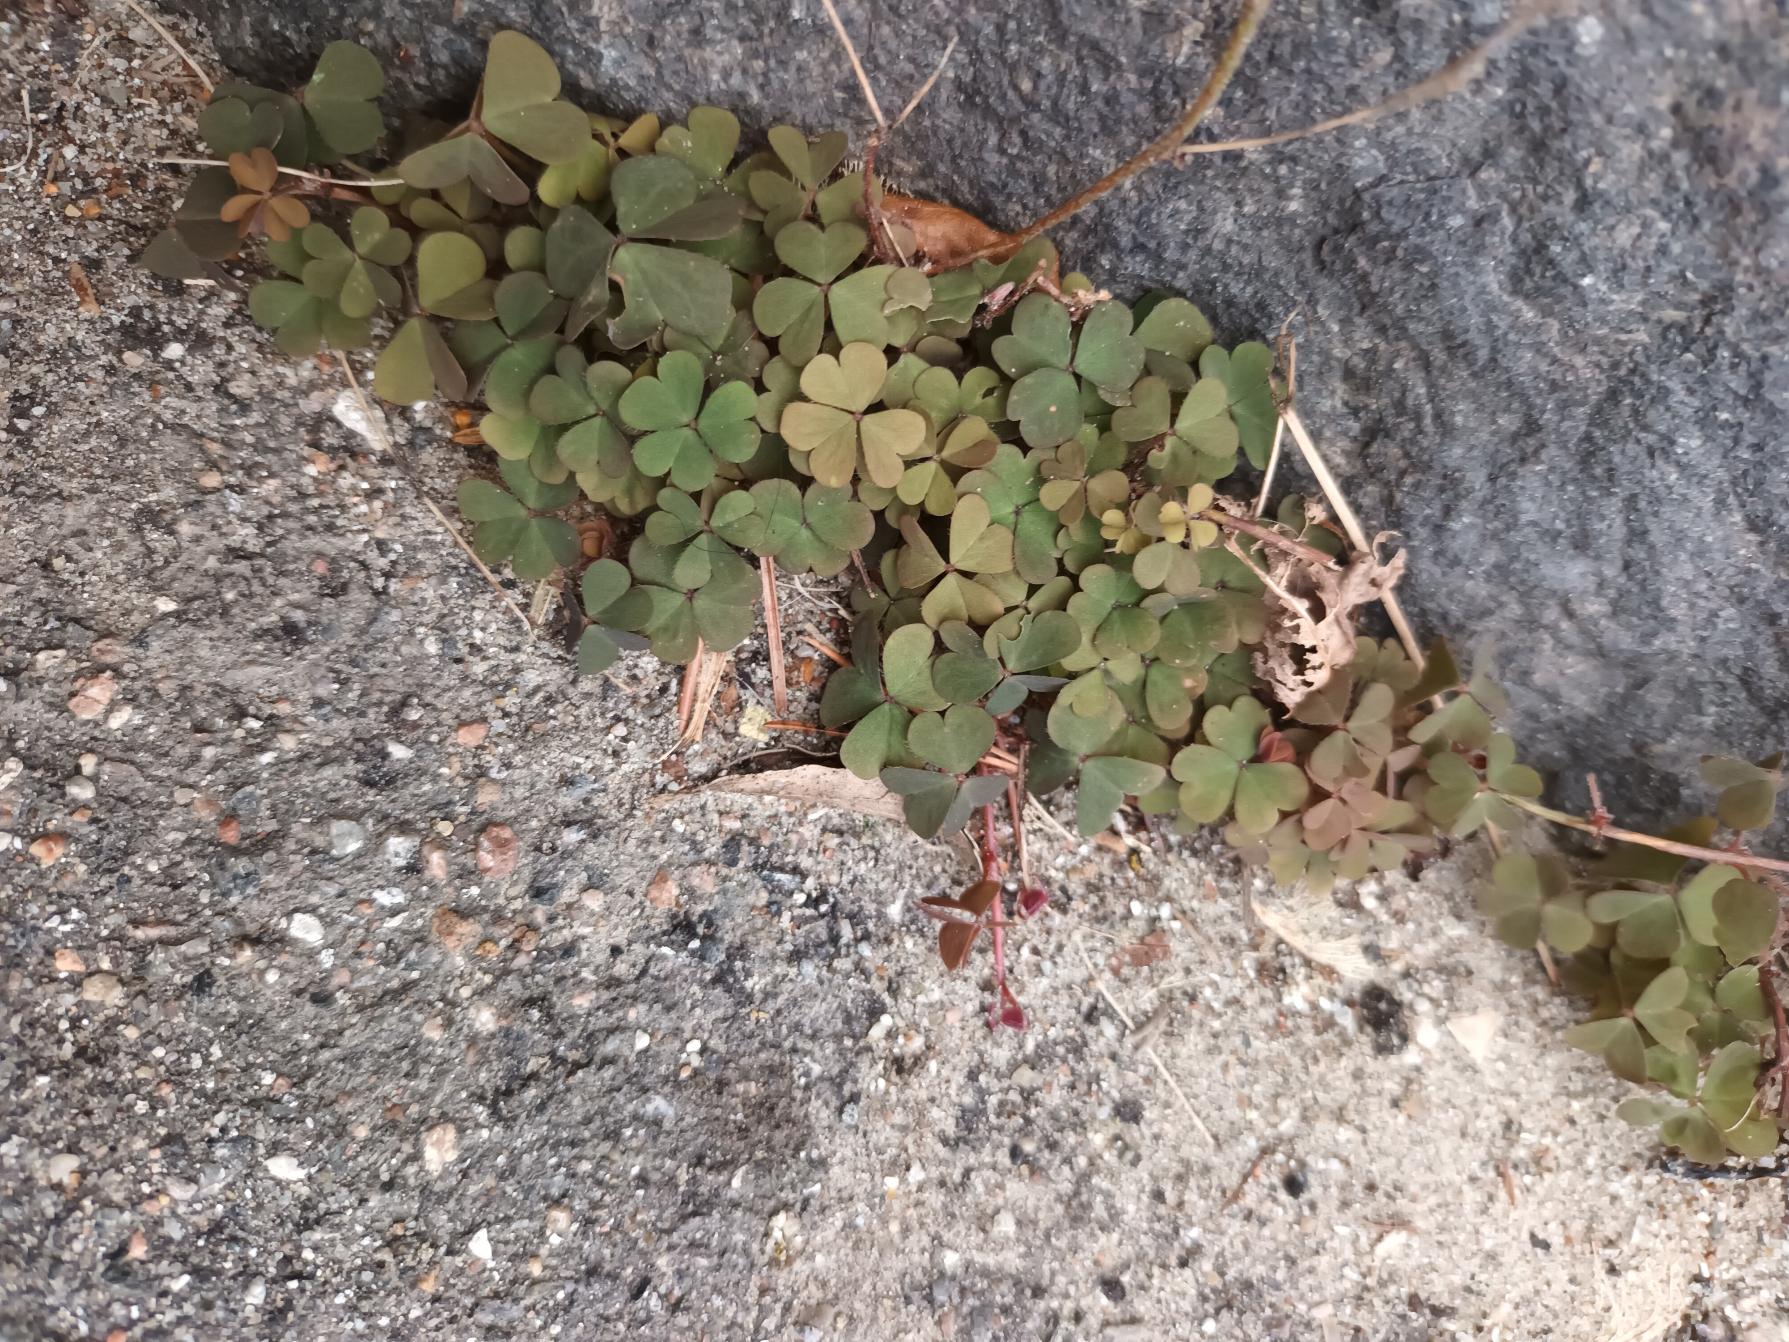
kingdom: Plantae
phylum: Tracheophyta
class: Magnoliopsida
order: Oxalidales
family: Oxalidaceae
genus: Oxalis
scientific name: Oxalis corniculata
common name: Nedliggende surkløver
